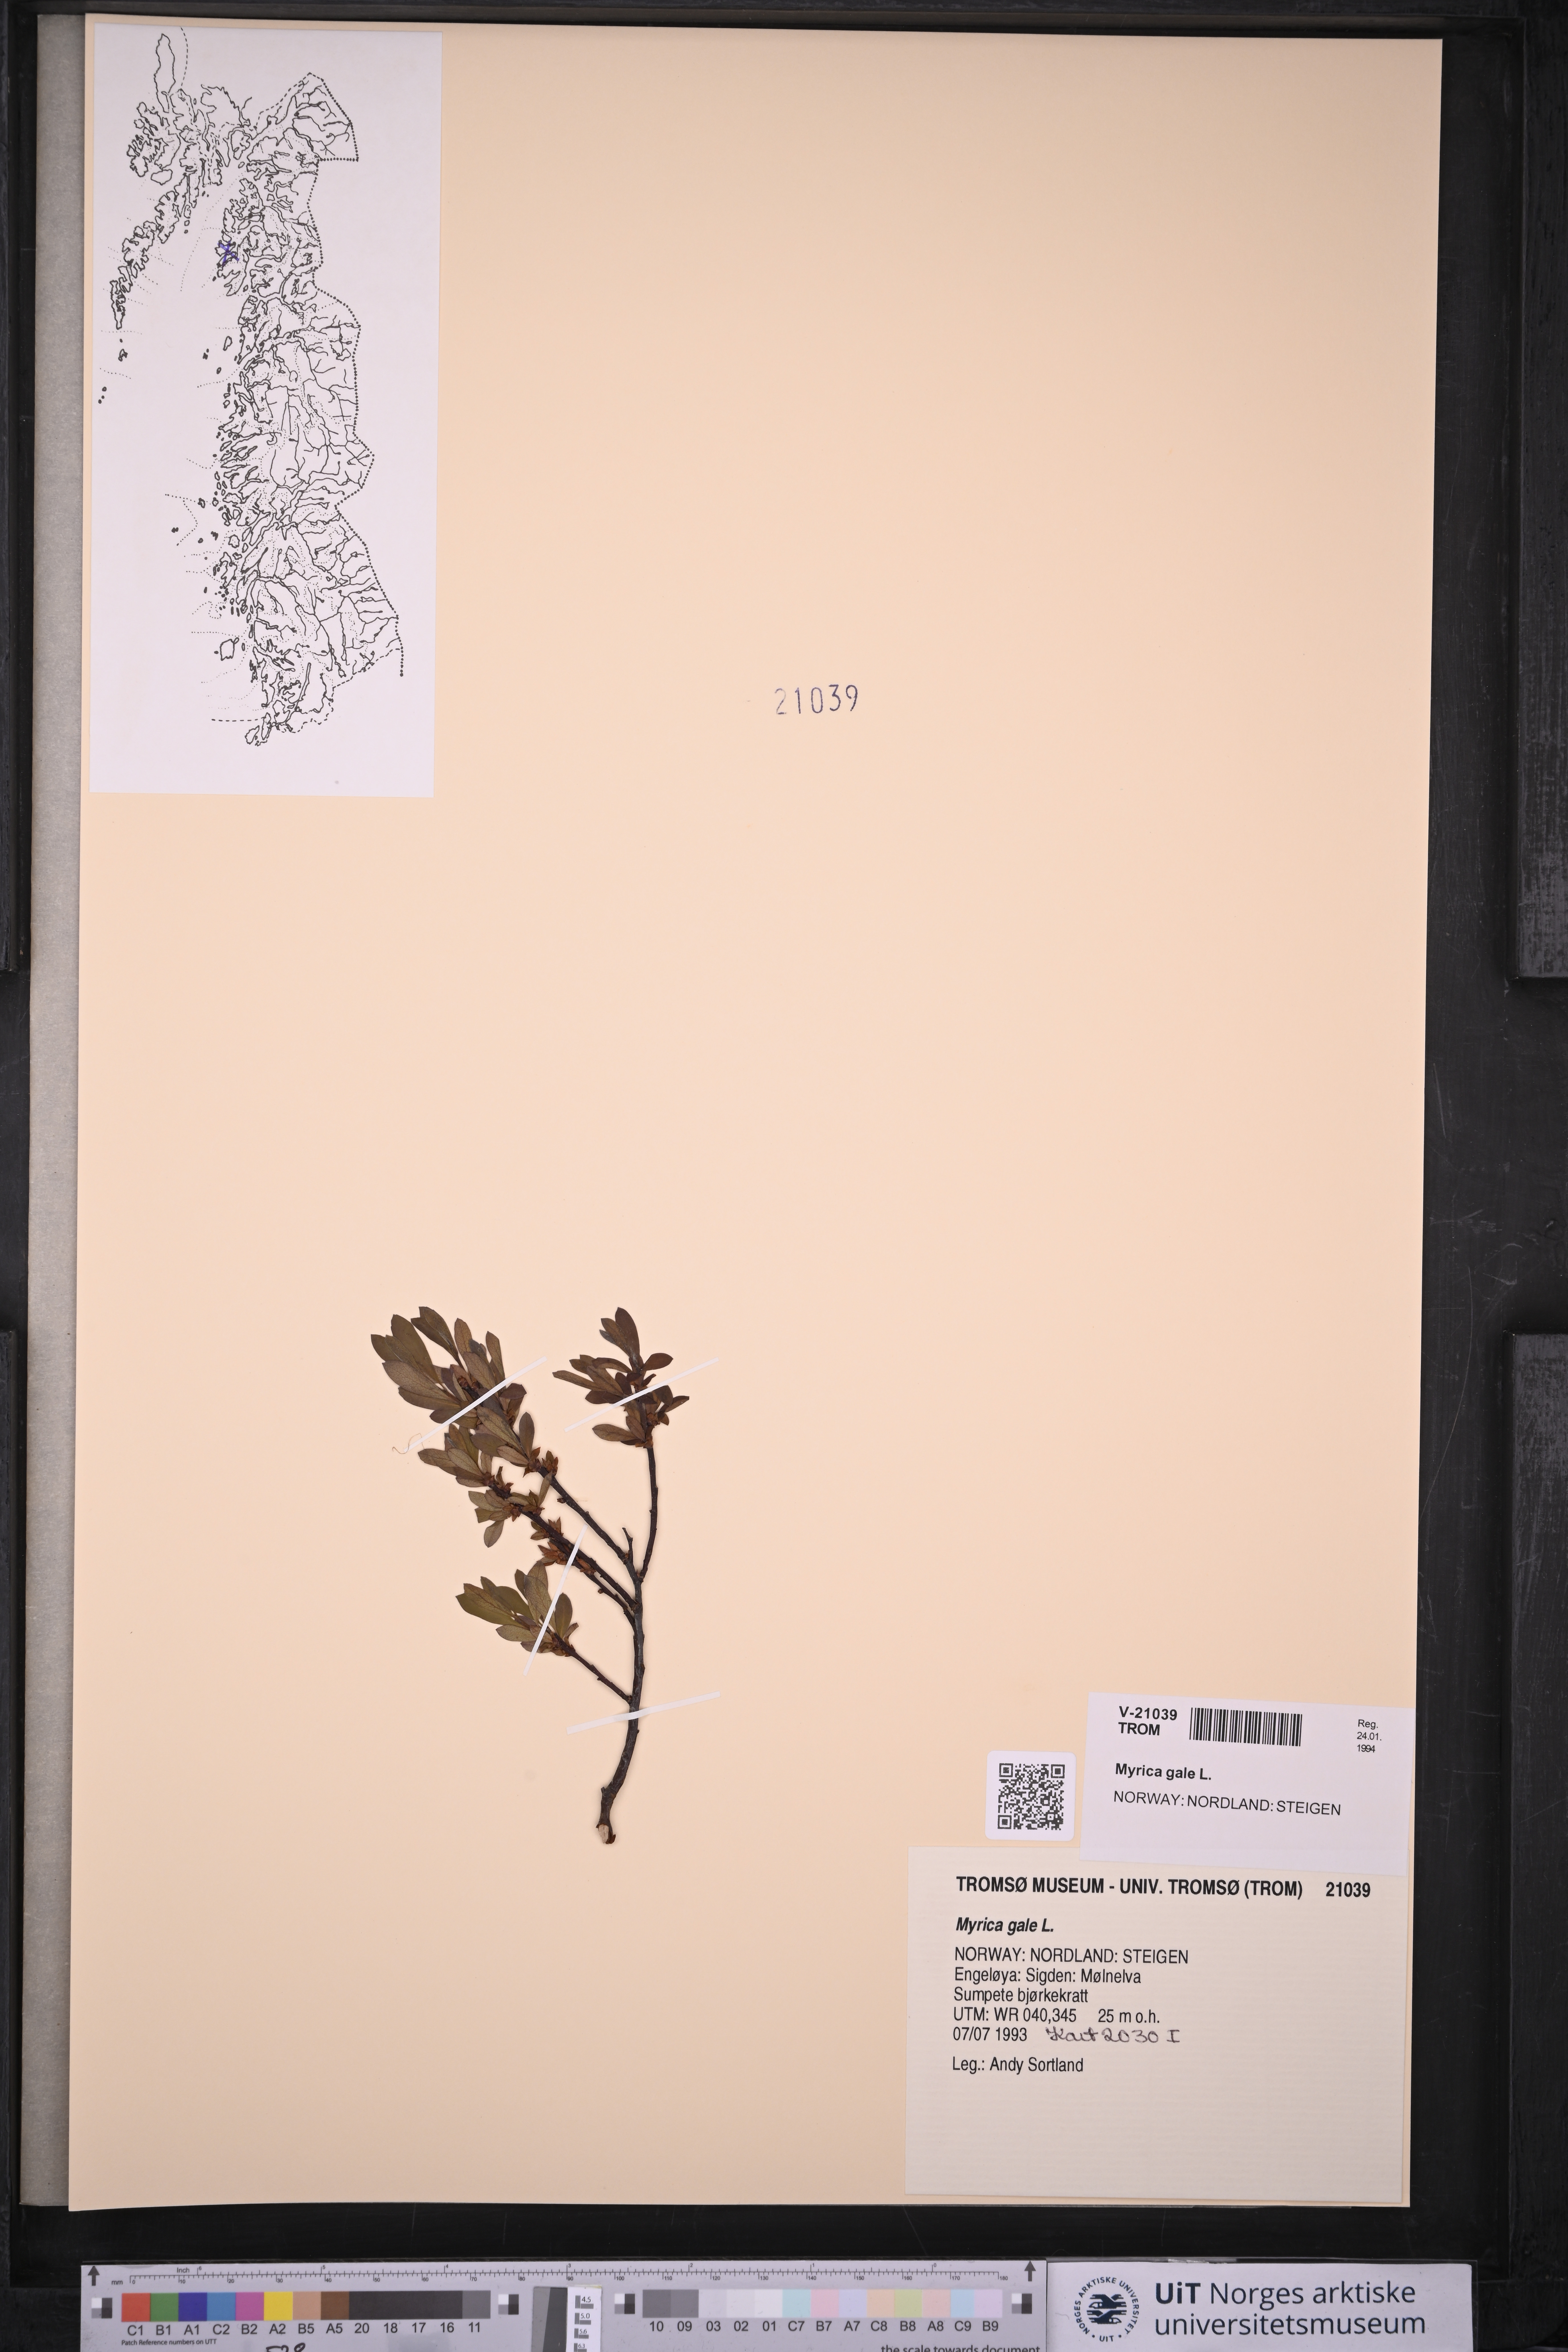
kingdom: Plantae
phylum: Tracheophyta
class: Magnoliopsida
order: Fagales
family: Myricaceae
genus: Myrica
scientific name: Myrica gale
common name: Sweet gale
